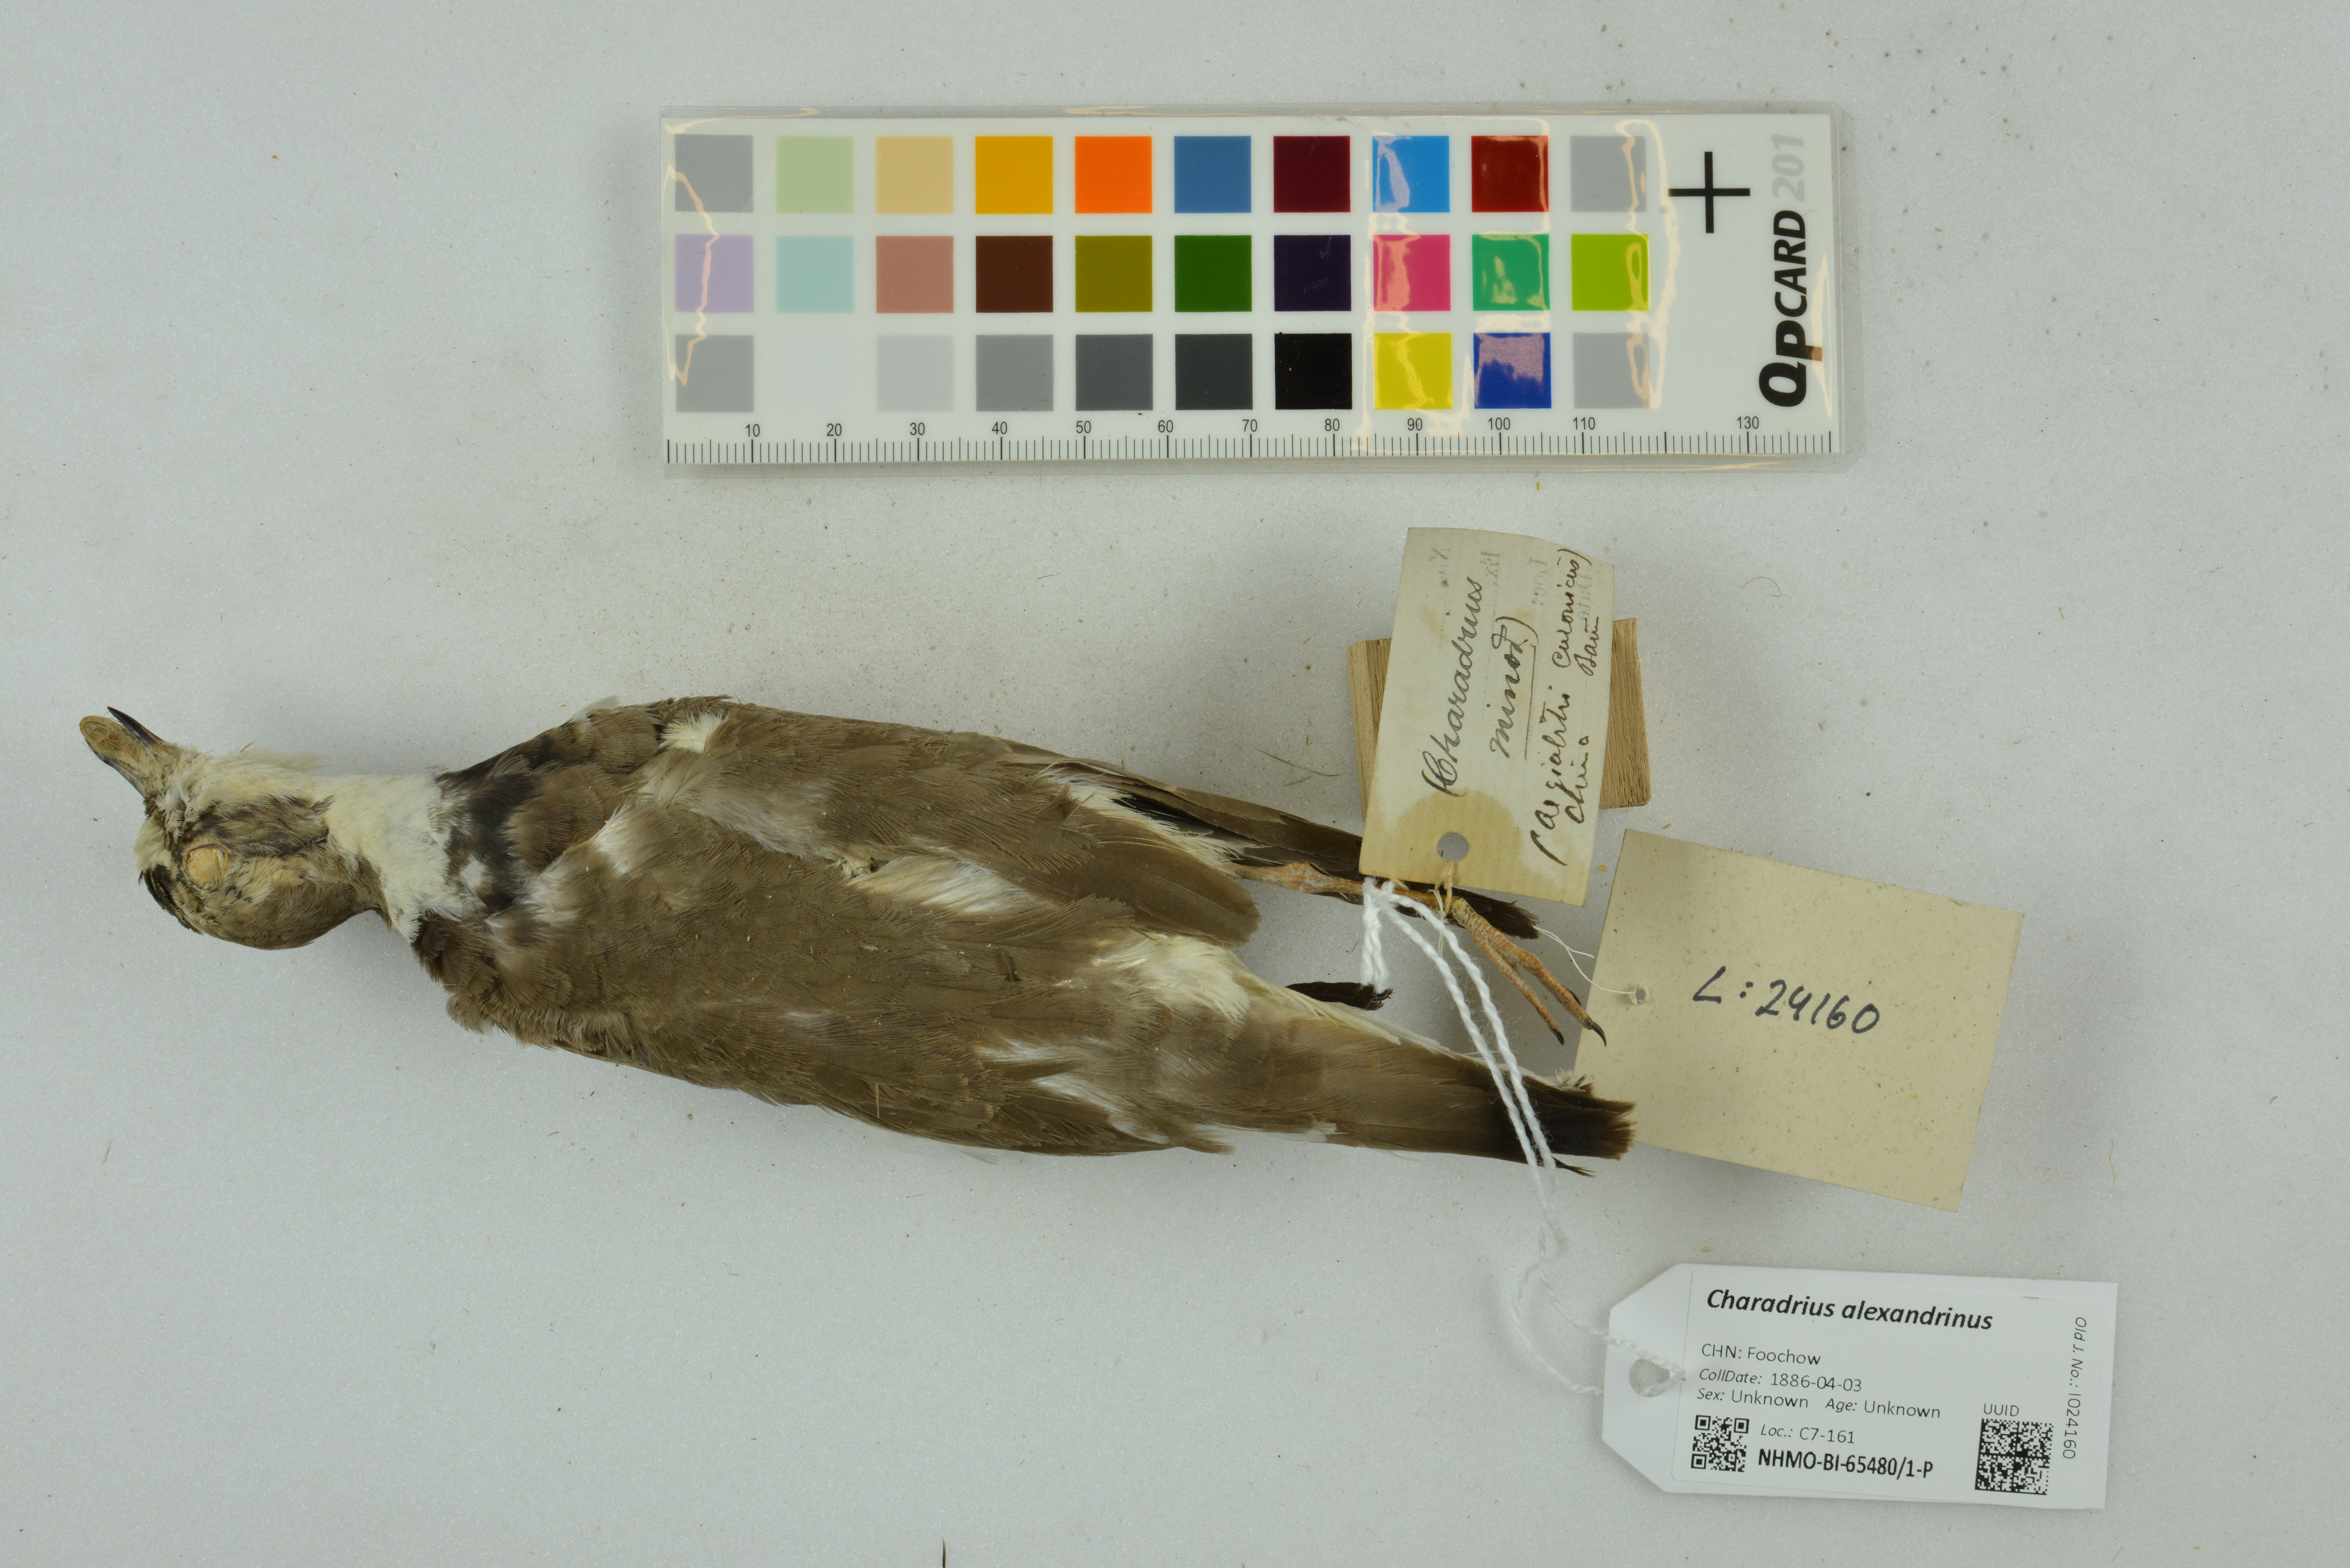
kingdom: Animalia
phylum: Chordata
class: Aves
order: Charadriiformes
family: Charadriidae
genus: Charadrius
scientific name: Charadrius alexandrinus
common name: Kentish plover
